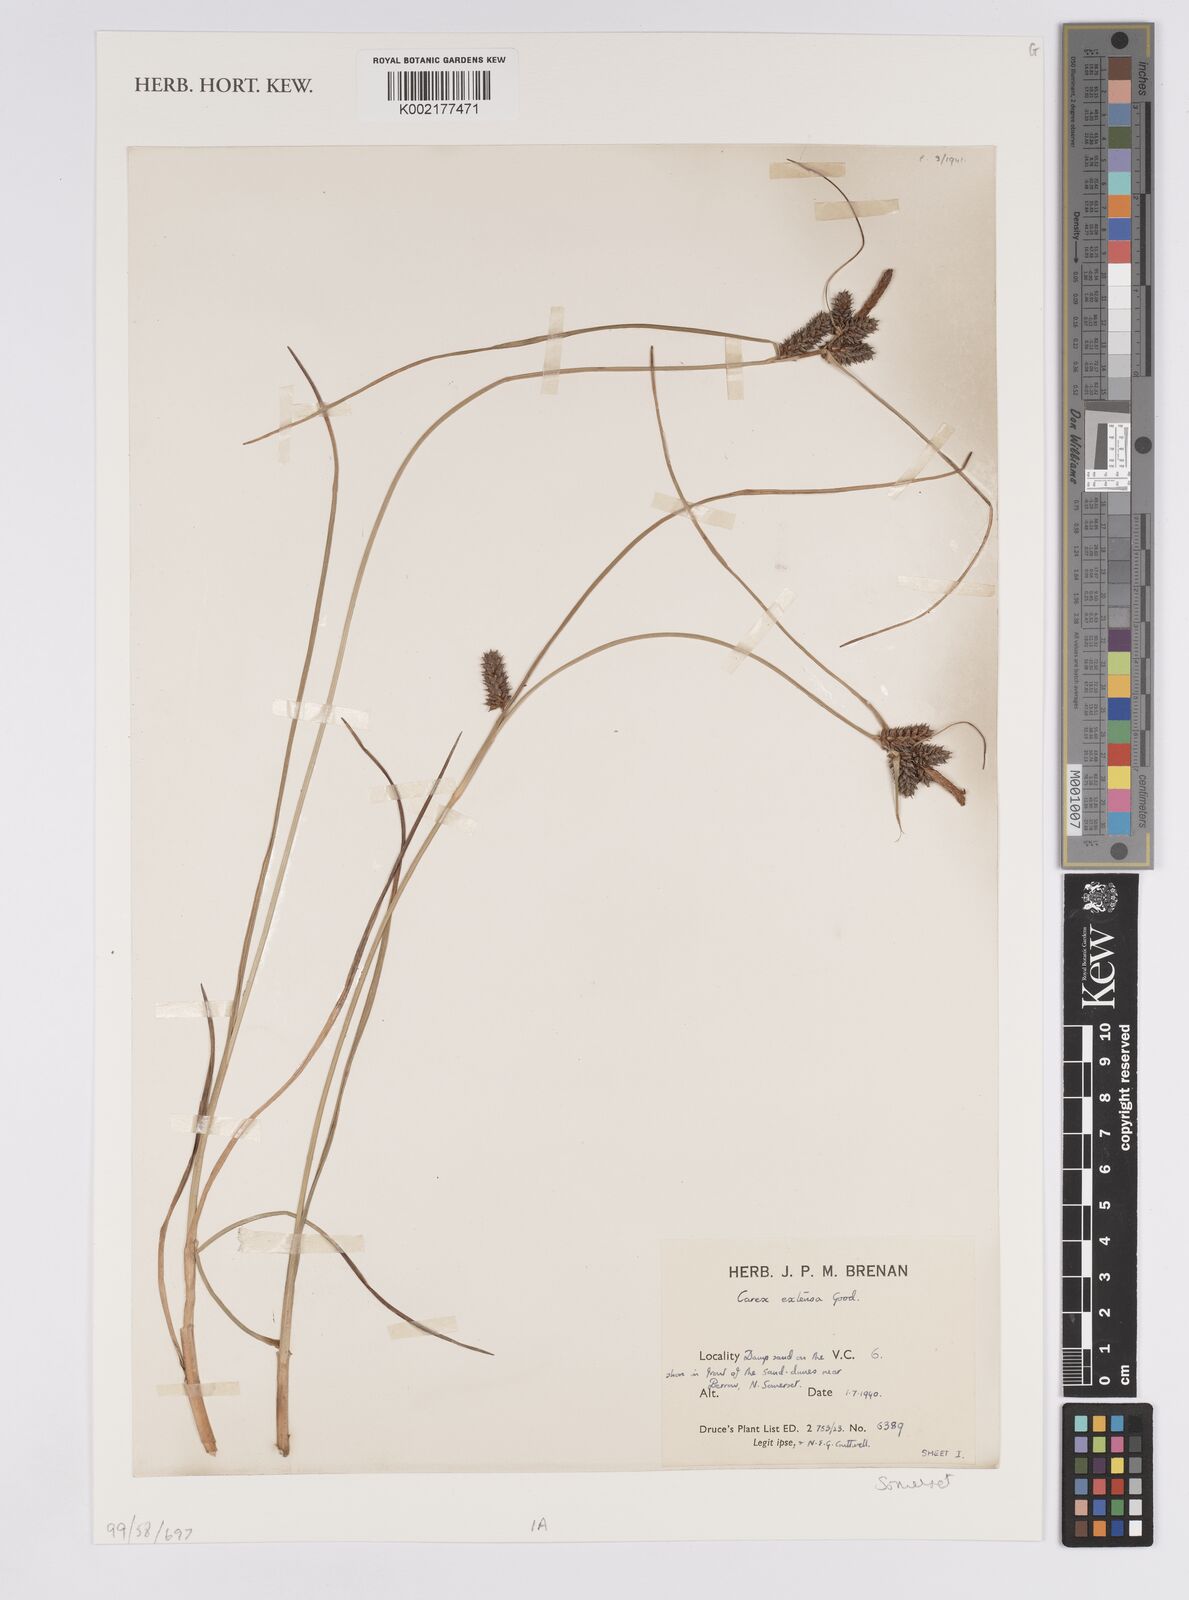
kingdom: Plantae
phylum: Tracheophyta
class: Liliopsida
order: Poales
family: Cyperaceae
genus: Carex
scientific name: Carex extensa
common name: Long-bracted sedge
